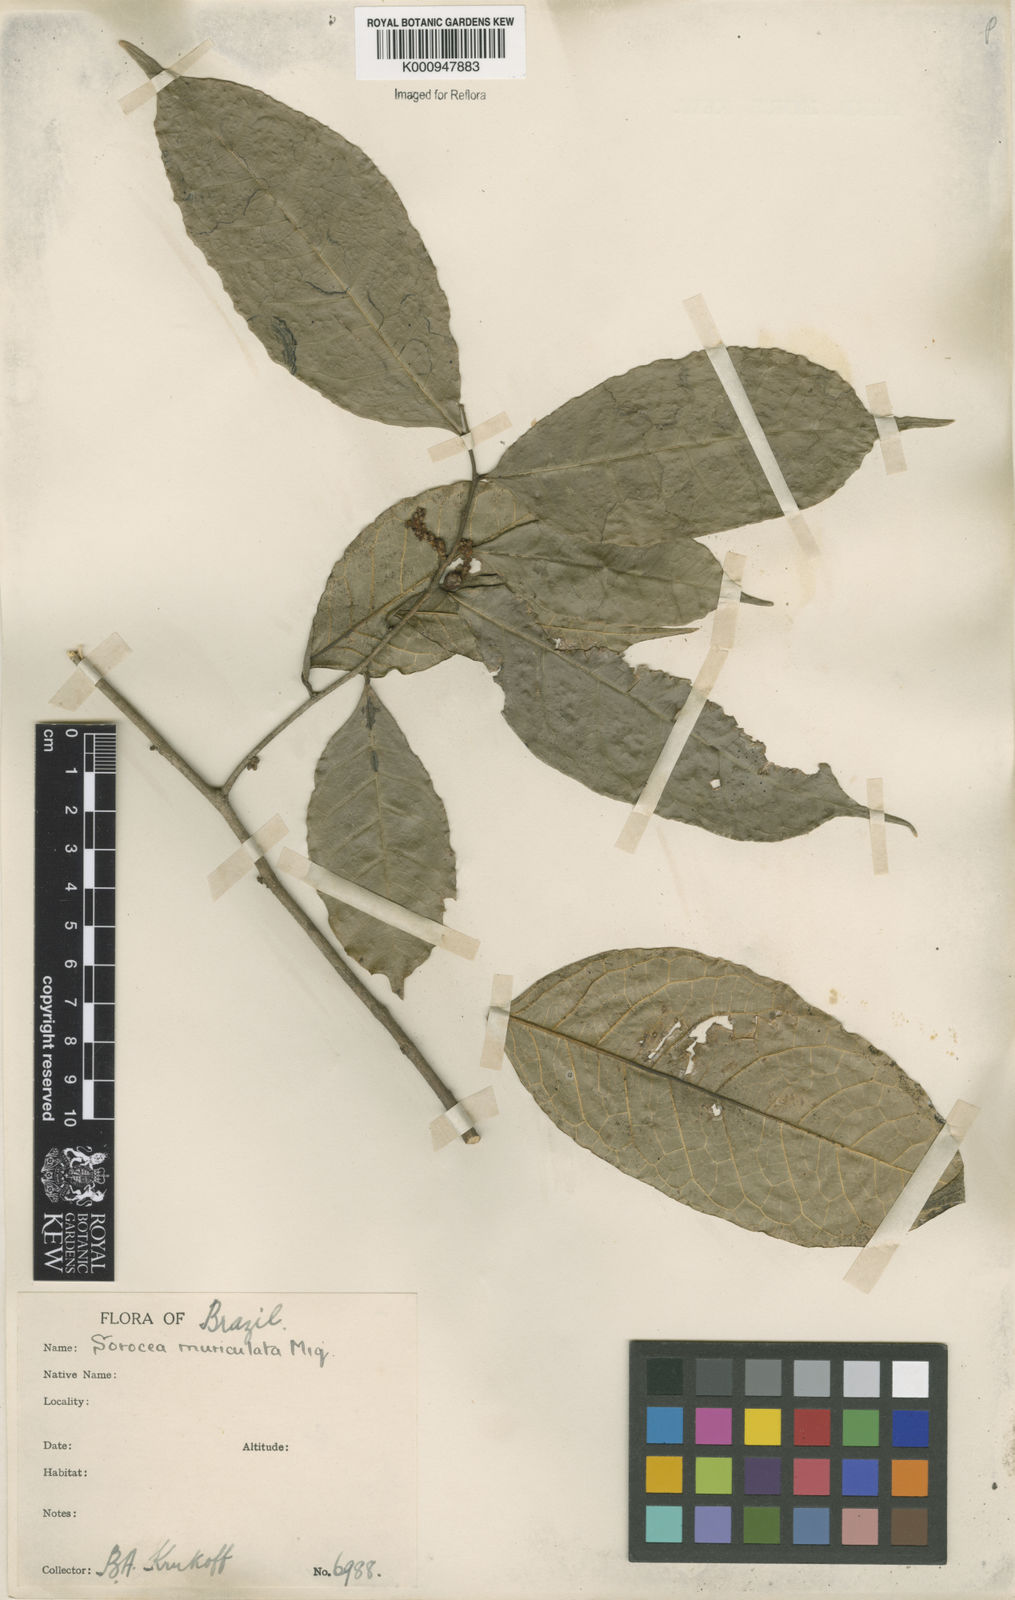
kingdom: Plantae
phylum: Tracheophyta
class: Magnoliopsida
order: Rosales
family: Moraceae
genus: Sorocea
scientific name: Sorocea muriculata
